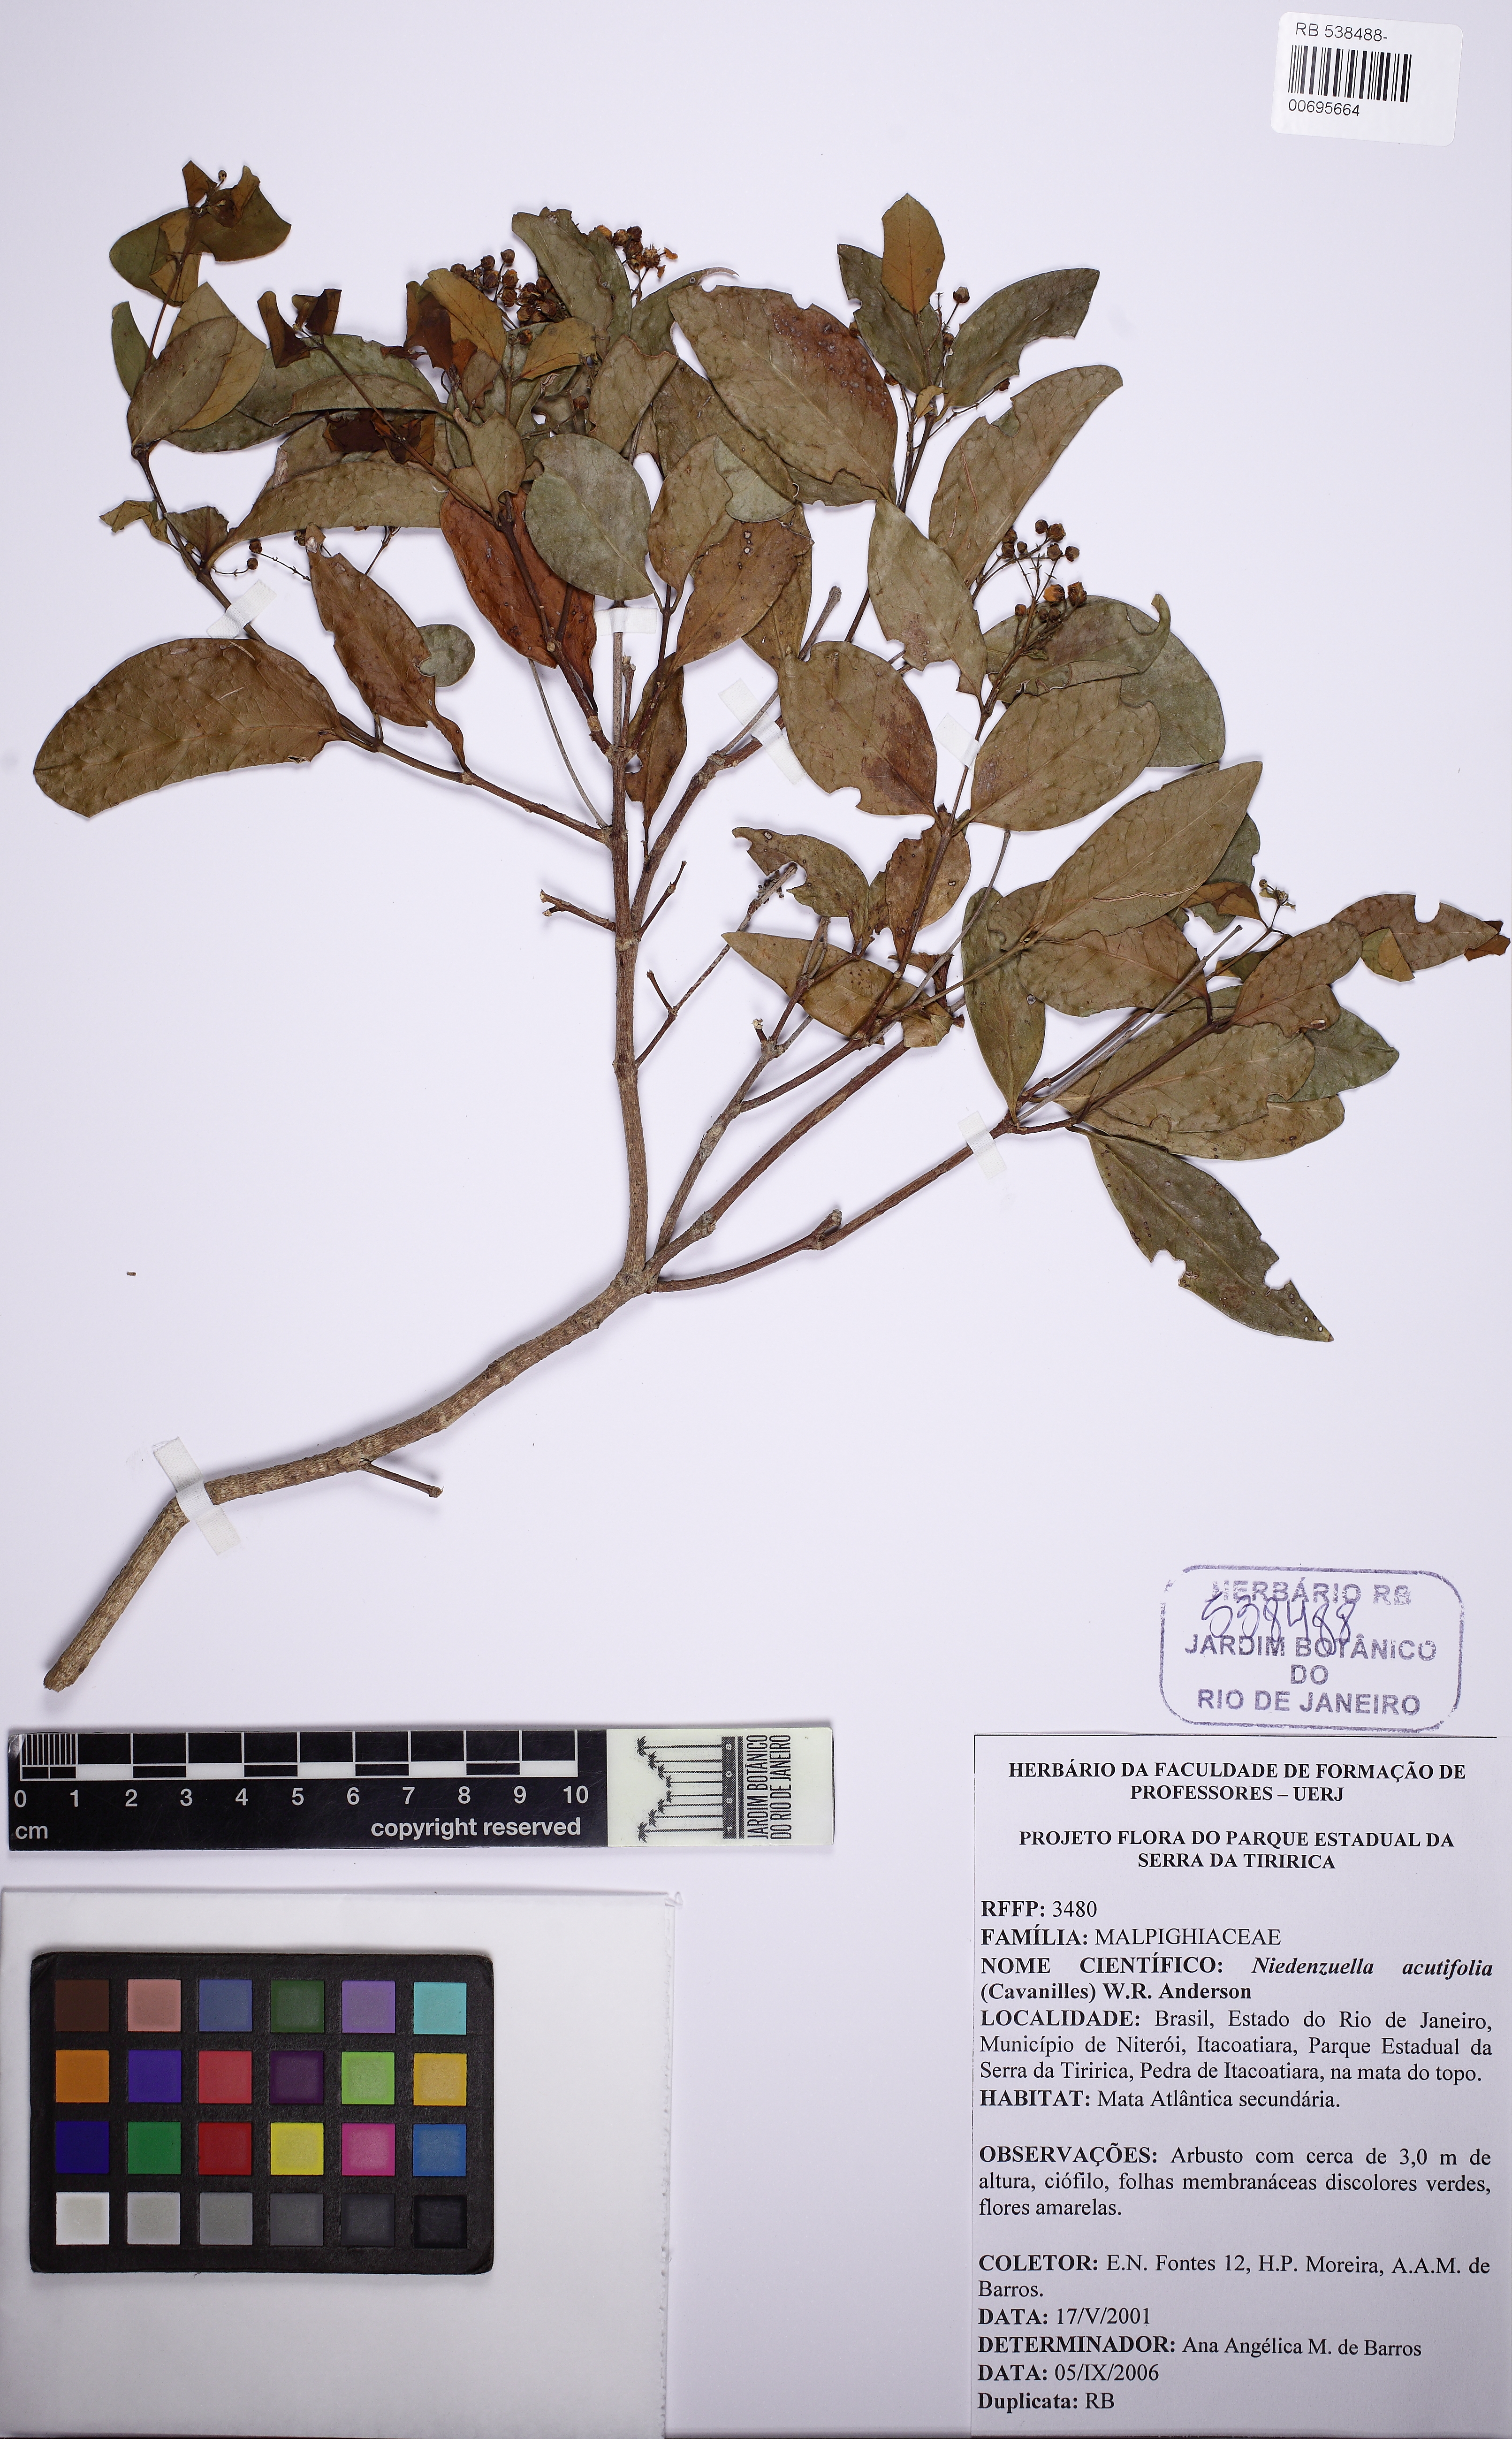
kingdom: Plantae
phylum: Tracheophyta
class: Magnoliopsida
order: Malpighiales
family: Malpighiaceae
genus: Niedenzuella
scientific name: Niedenzuella acutifolia
